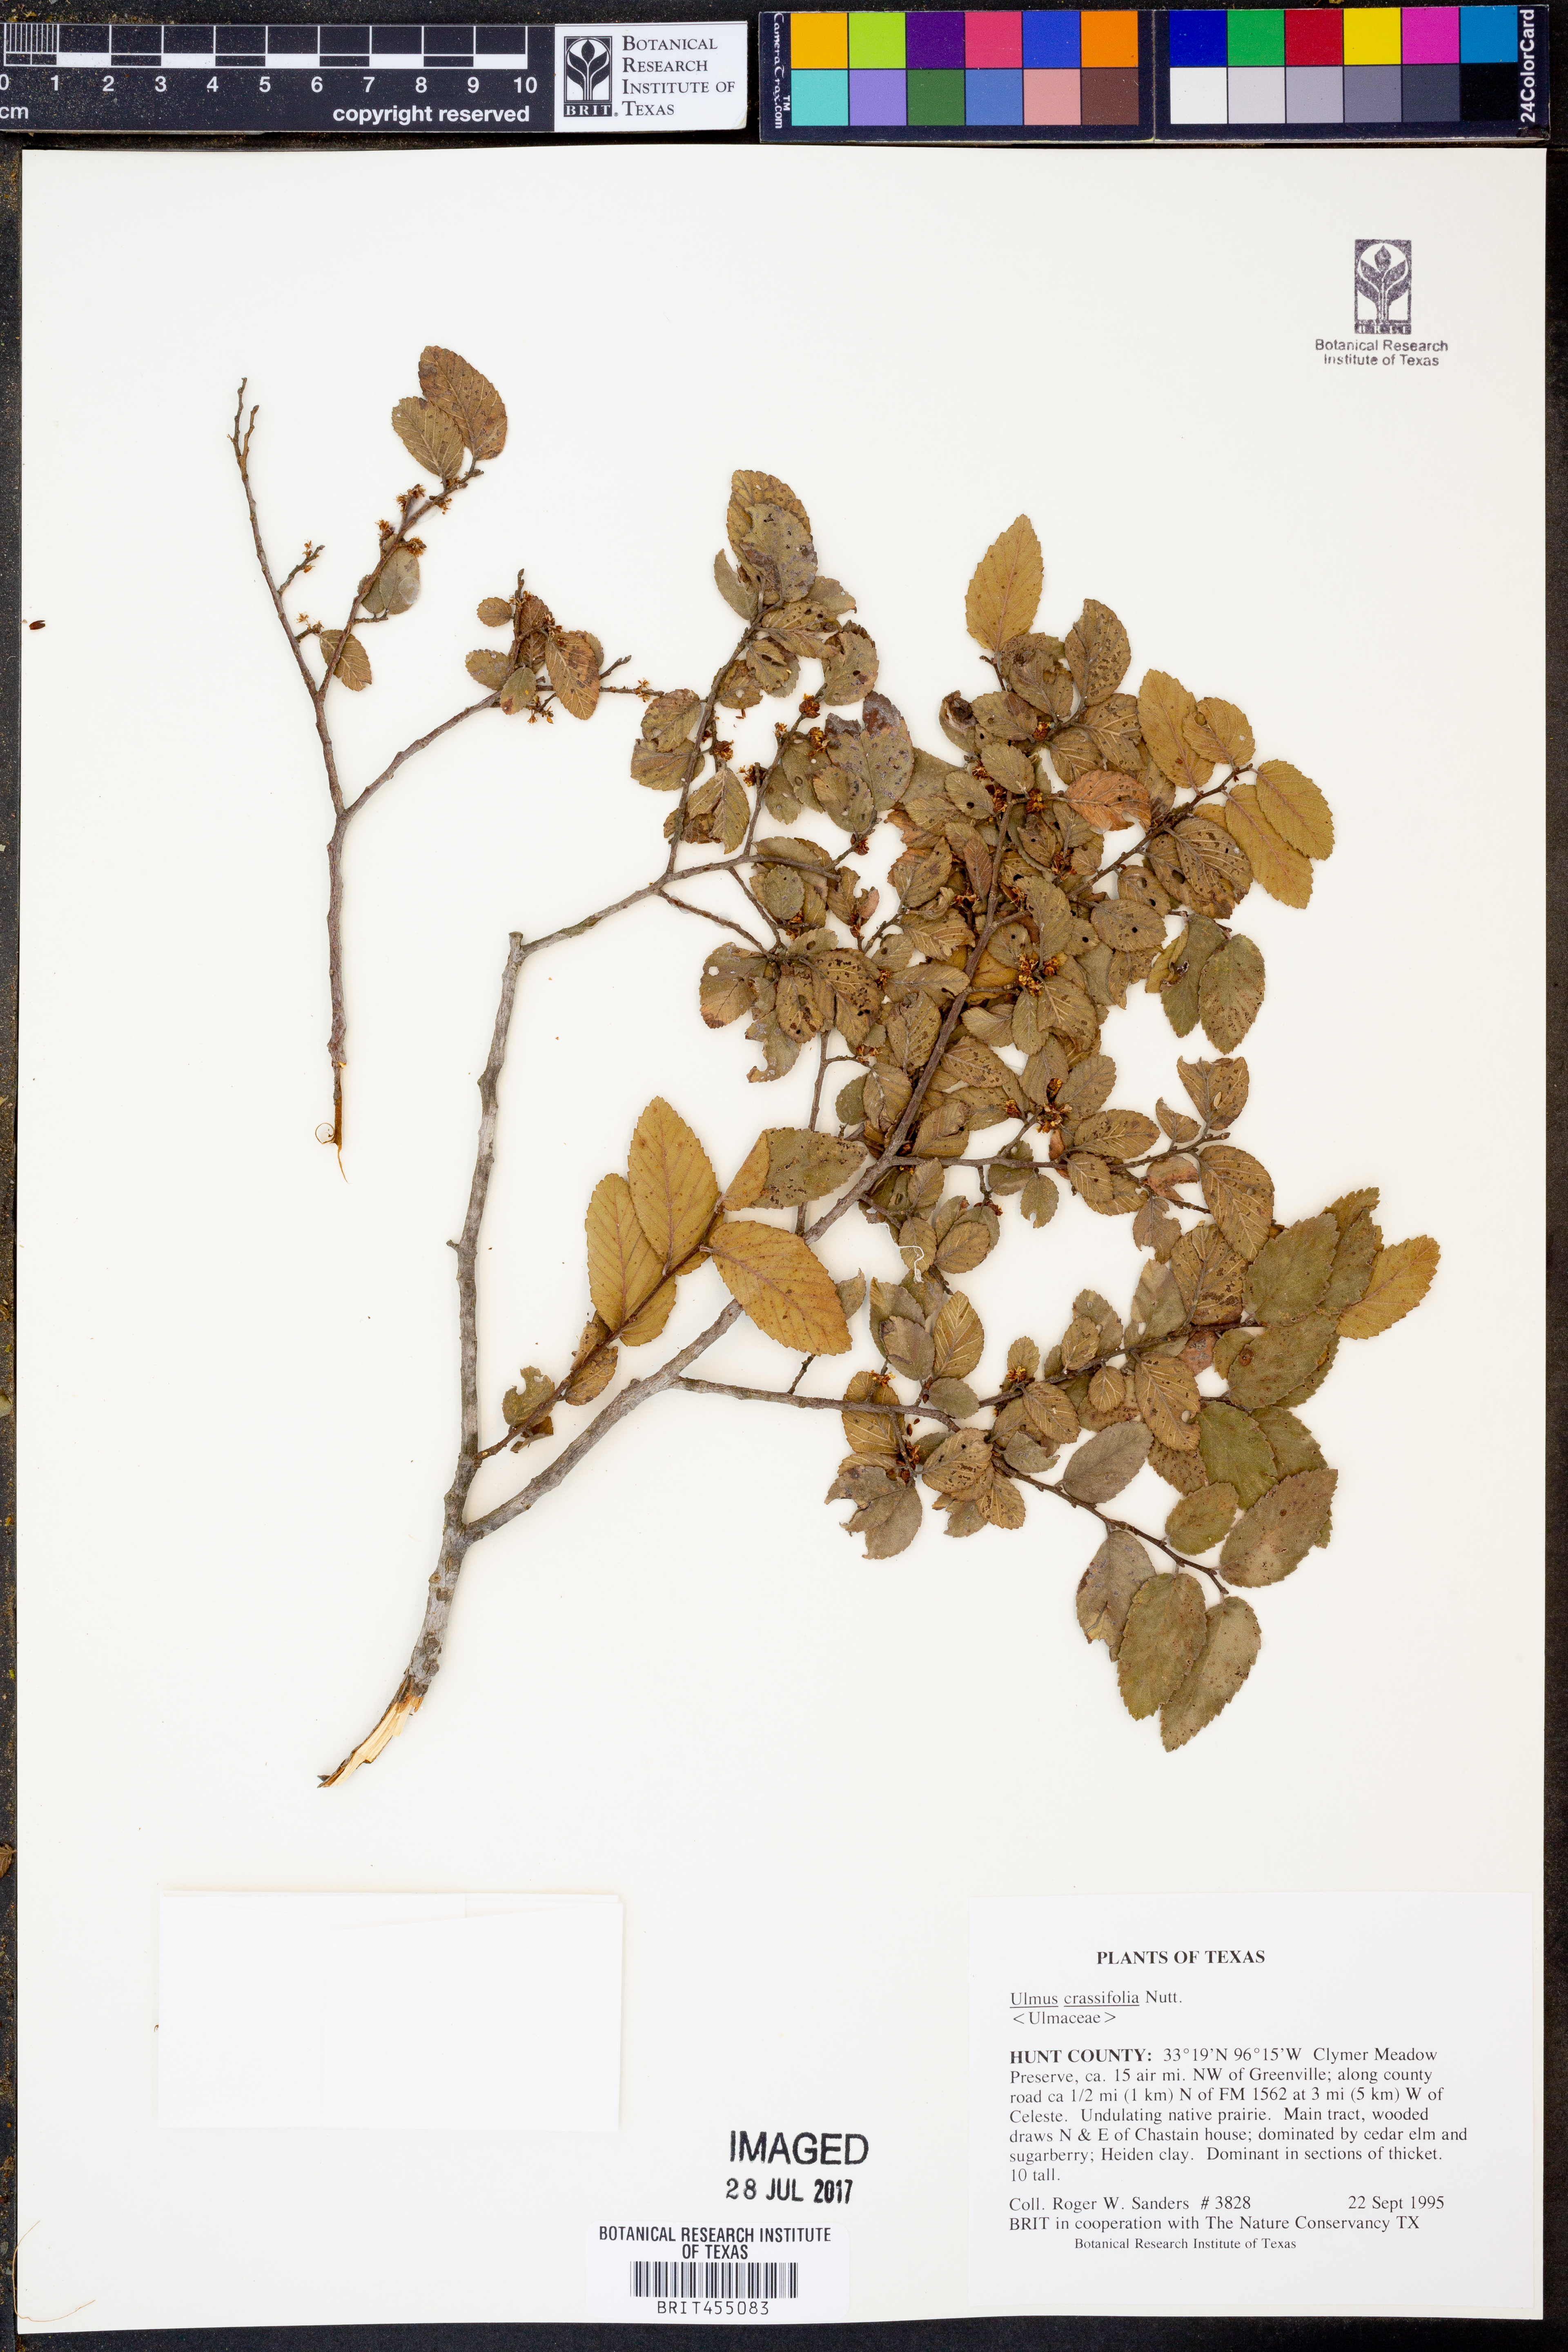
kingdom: Plantae
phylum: Tracheophyta
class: Magnoliopsida
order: Rosales
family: Ulmaceae
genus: Ulmus
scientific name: Ulmus crassifolia
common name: Basket elm
